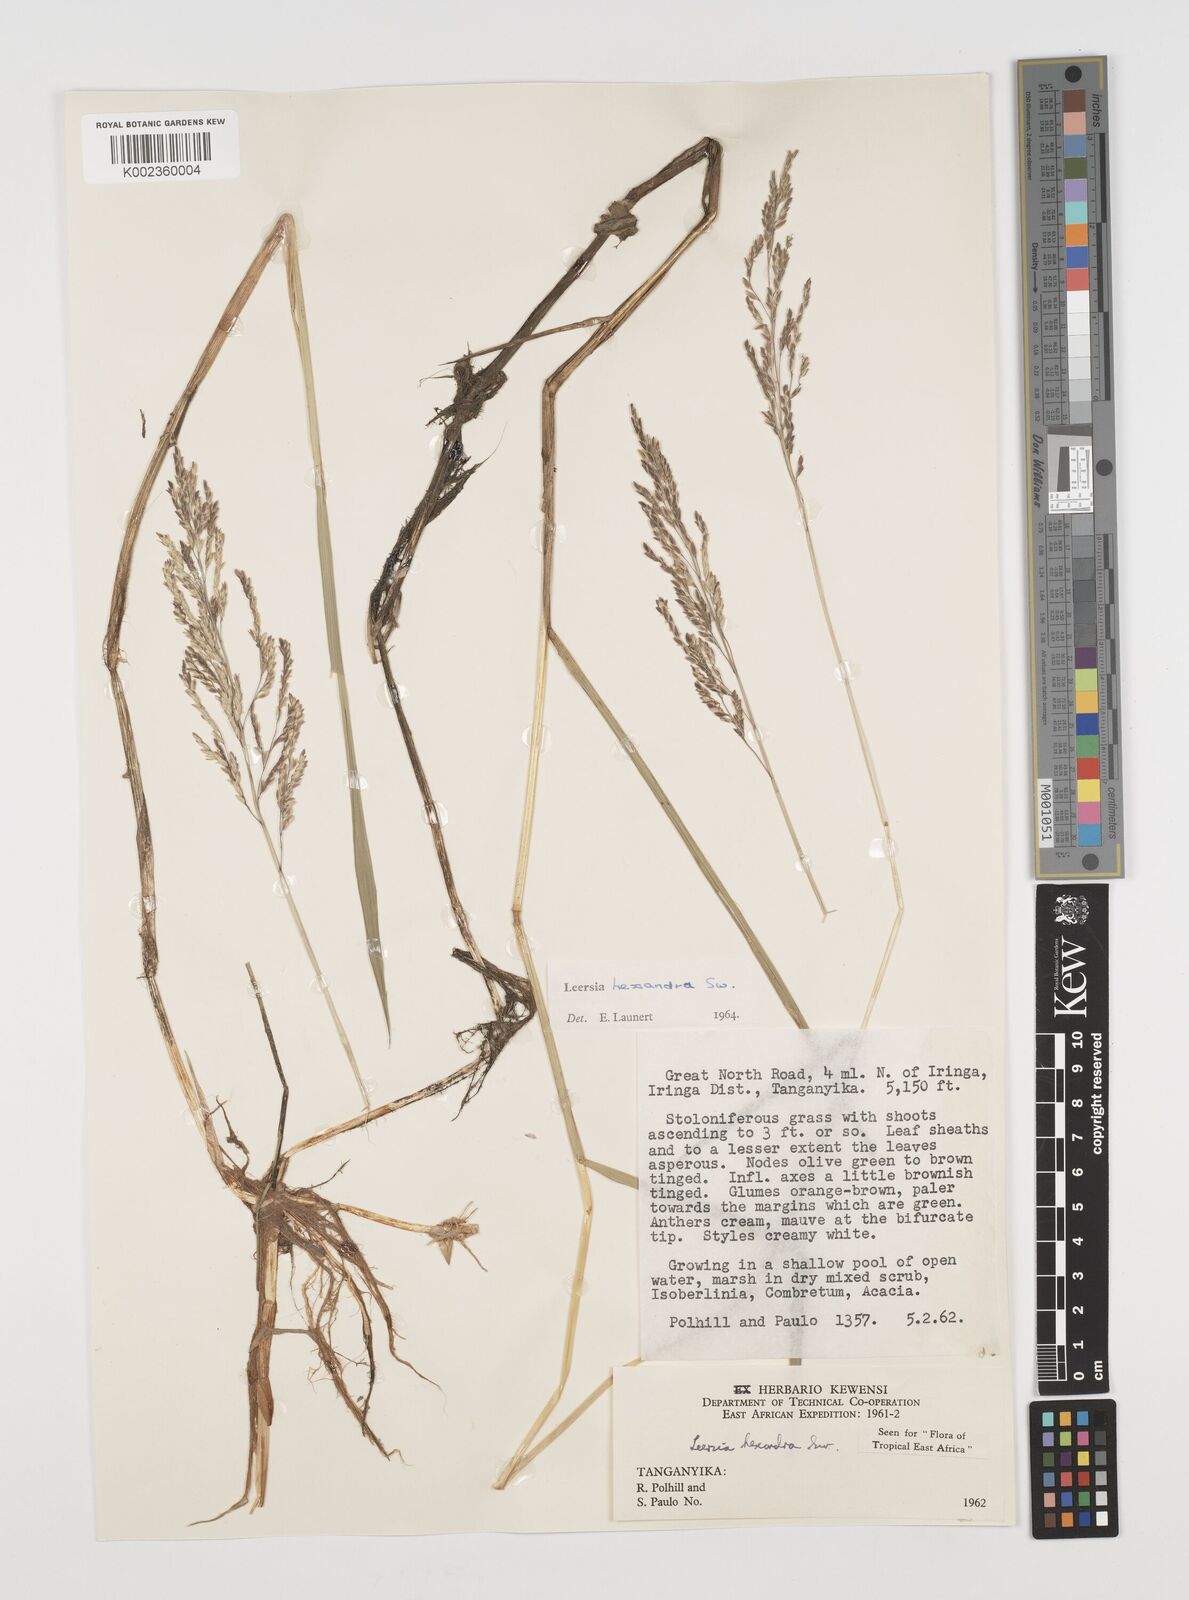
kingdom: Plantae
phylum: Tracheophyta
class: Liliopsida
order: Poales
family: Poaceae
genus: Leersia
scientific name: Leersia hexandra
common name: Southern cut grass
